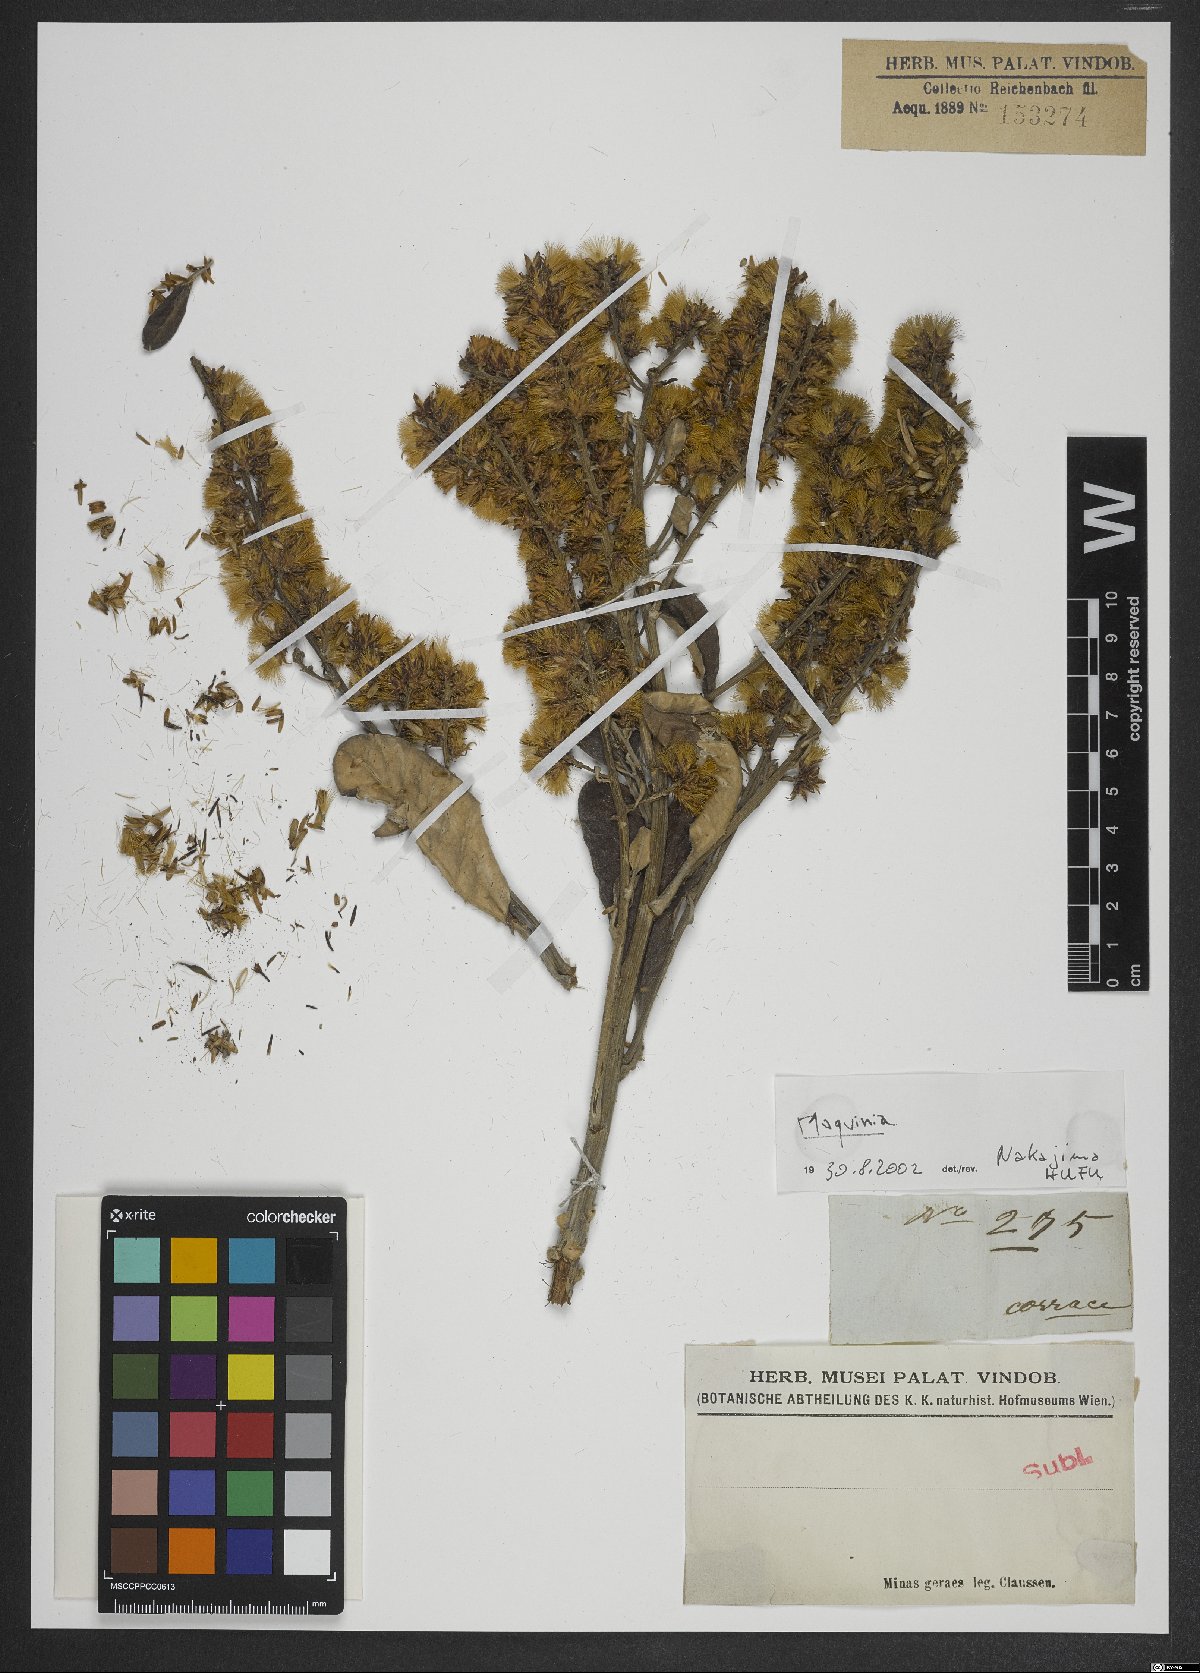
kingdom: Plantae
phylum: Tracheophyta
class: Magnoliopsida
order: Asterales
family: Asteraceae
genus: Moquinia
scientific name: Moquinia
